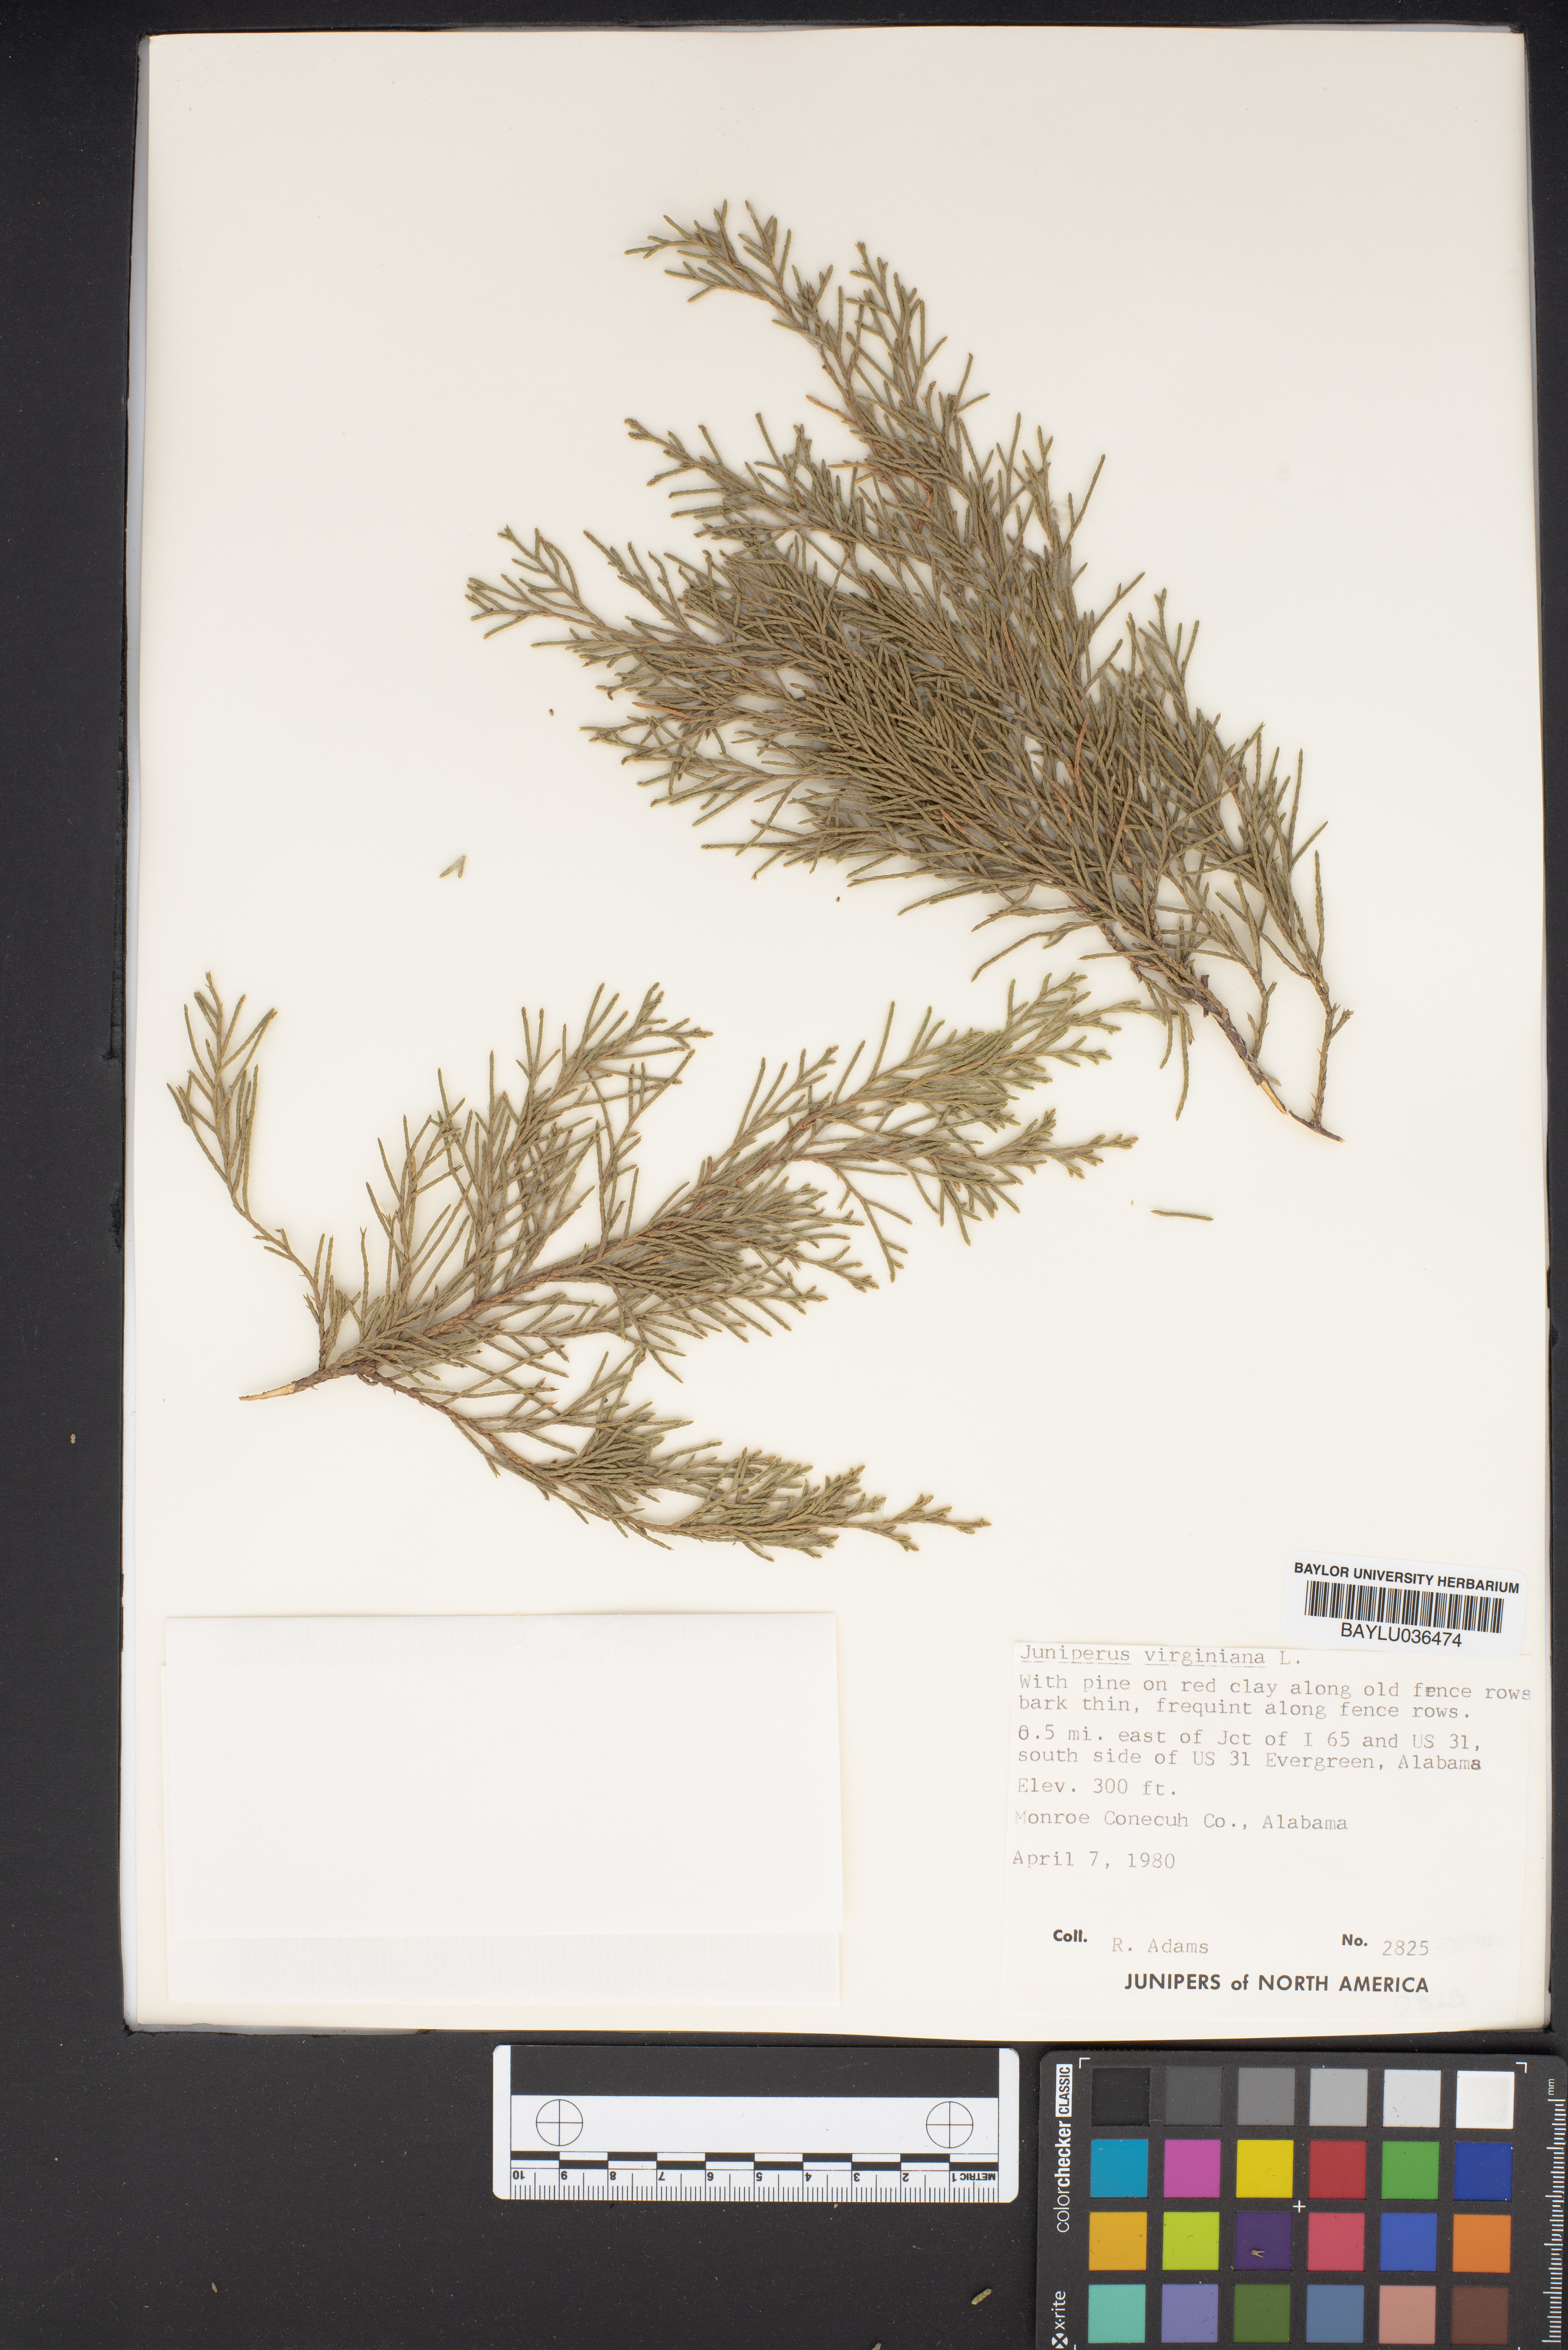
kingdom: Plantae
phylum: Tracheophyta
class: Pinopsida
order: Pinales
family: Cupressaceae
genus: Juniperus
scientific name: Juniperus virginiana
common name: Red juniper
